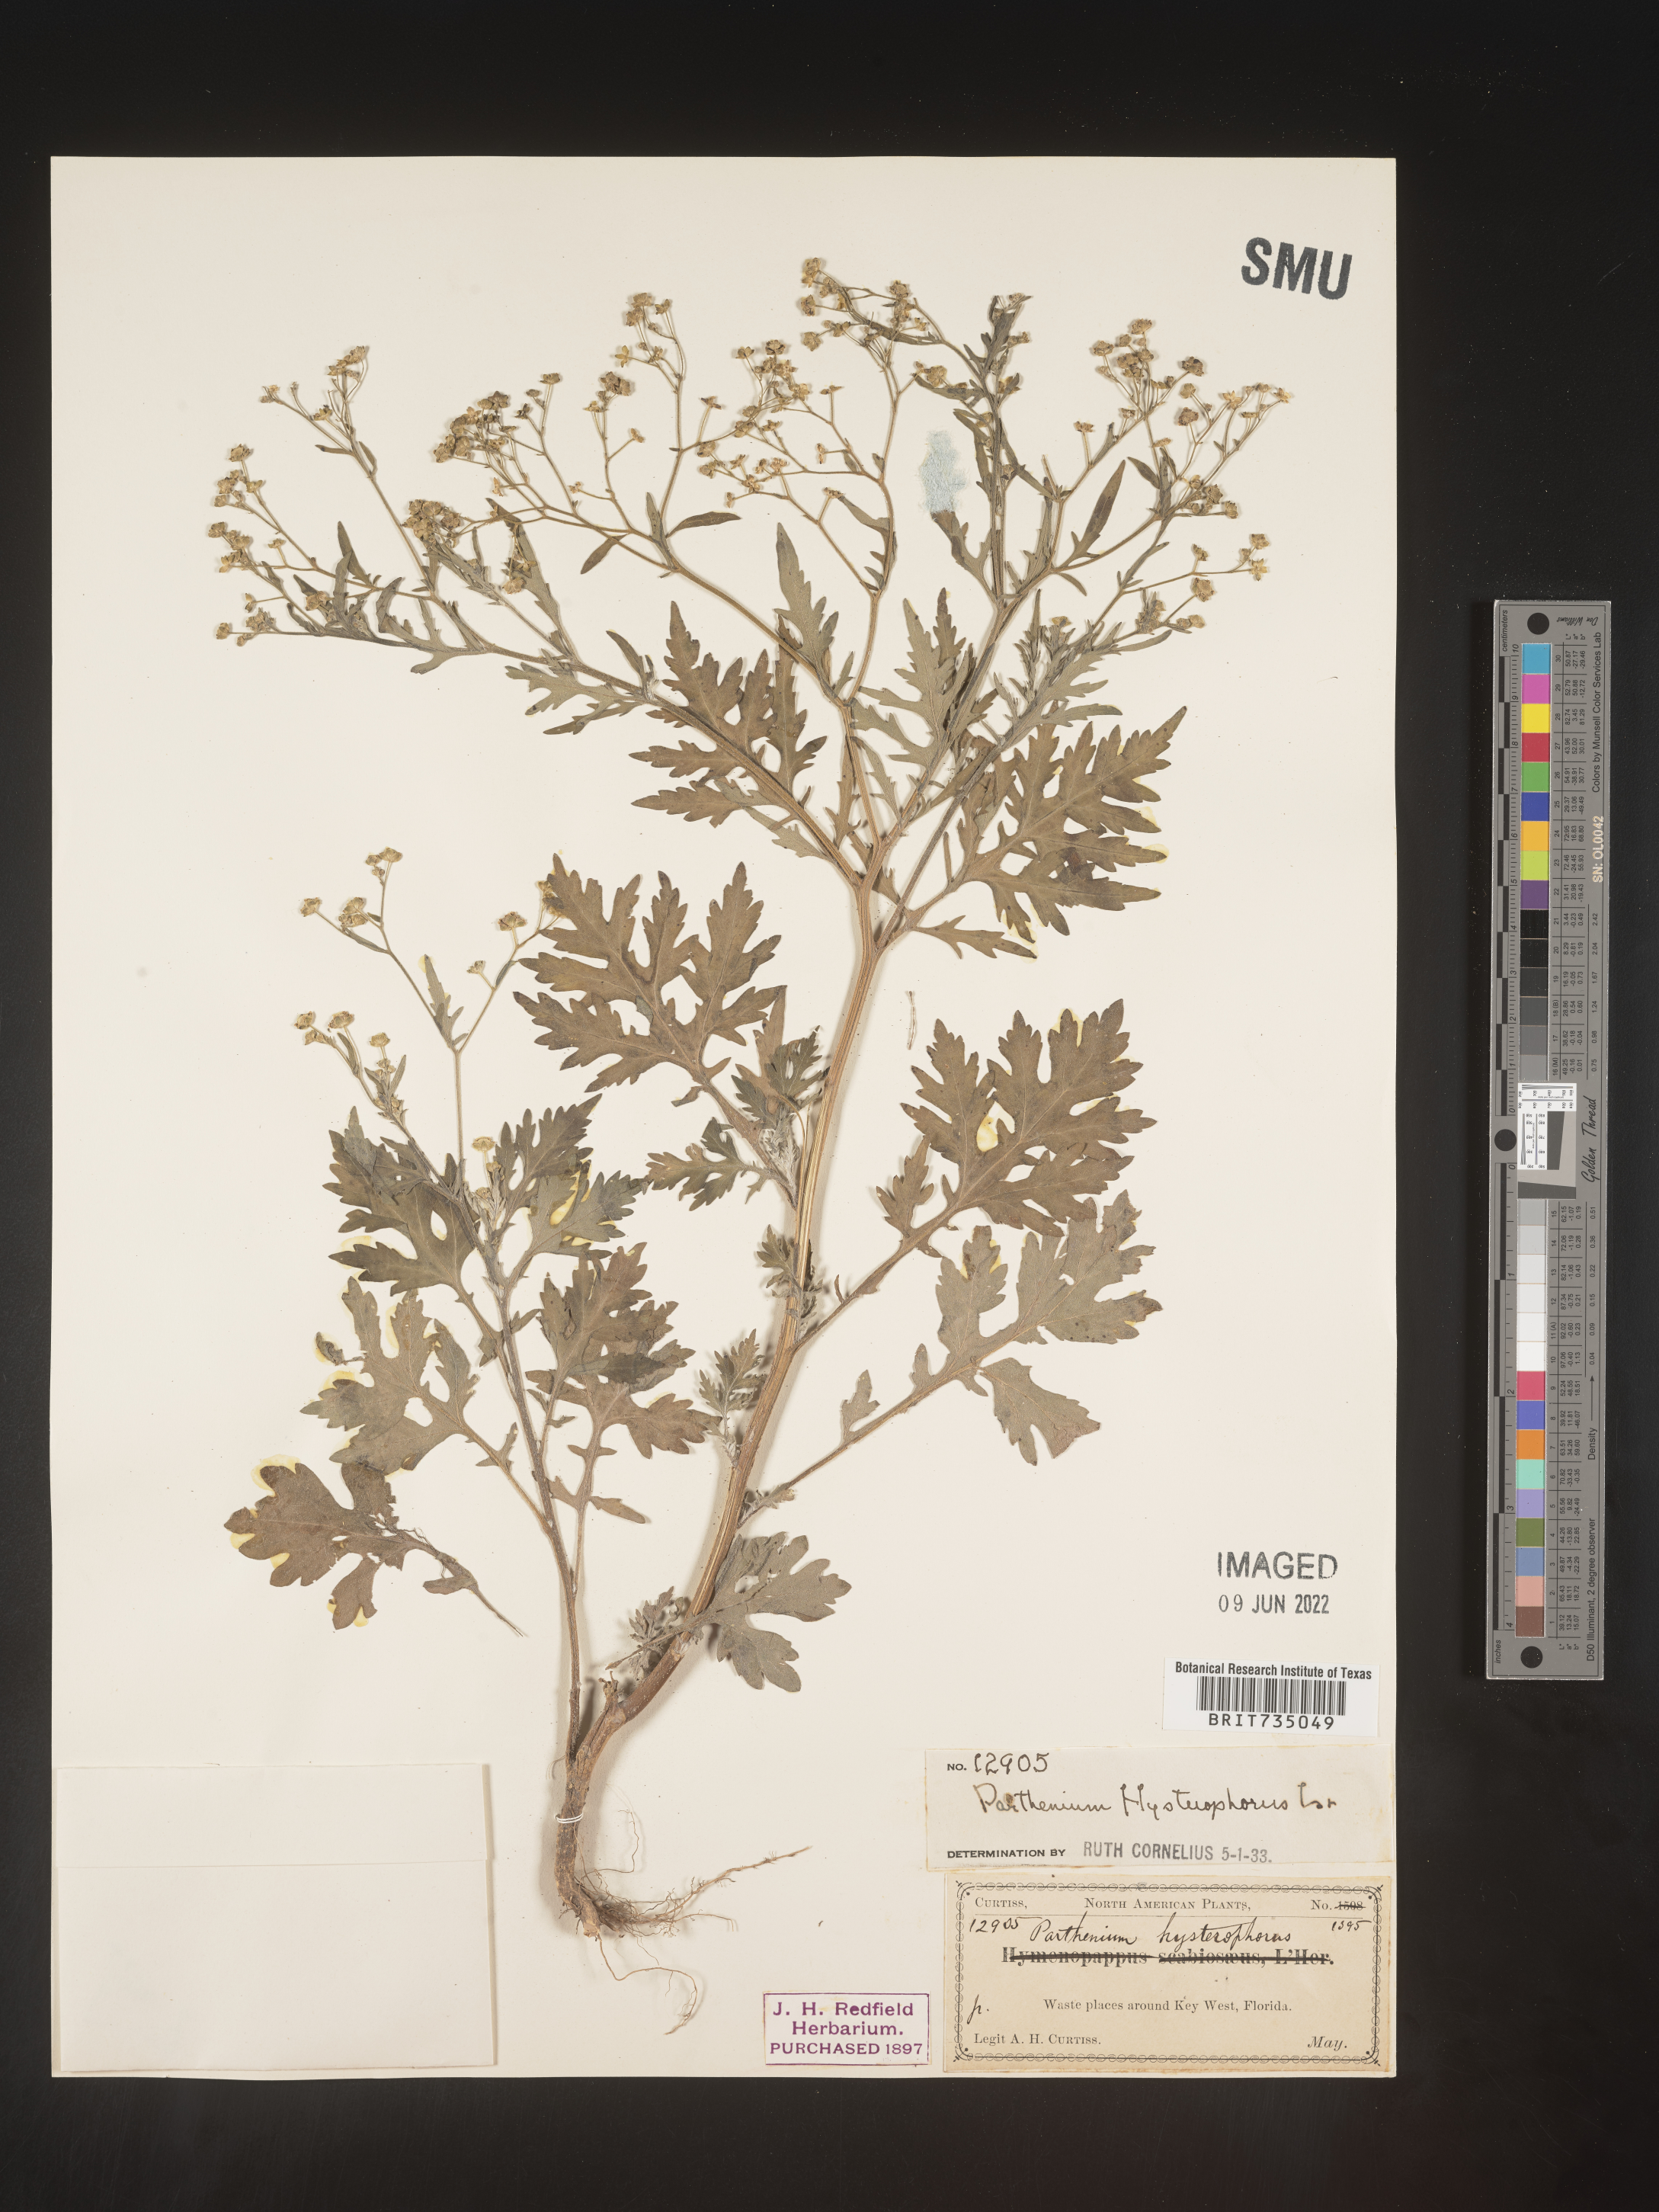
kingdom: Plantae
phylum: Tracheophyta
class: Magnoliopsida
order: Asterales
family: Asteraceae
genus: Parthenium
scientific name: Parthenium hysterophorus
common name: Santa maria feverfew
